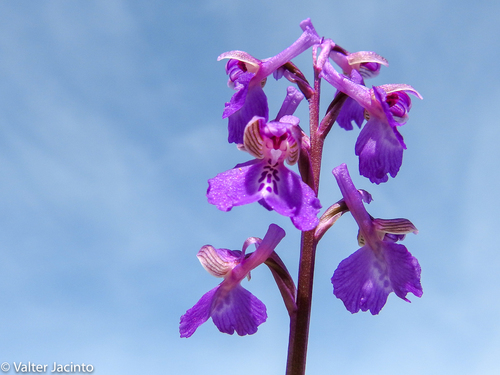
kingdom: Plantae
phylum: Tracheophyta
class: Liliopsida
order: Asparagales
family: Orchidaceae
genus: Anacamptis
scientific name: Anacamptis morio
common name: Green-winged orchid
